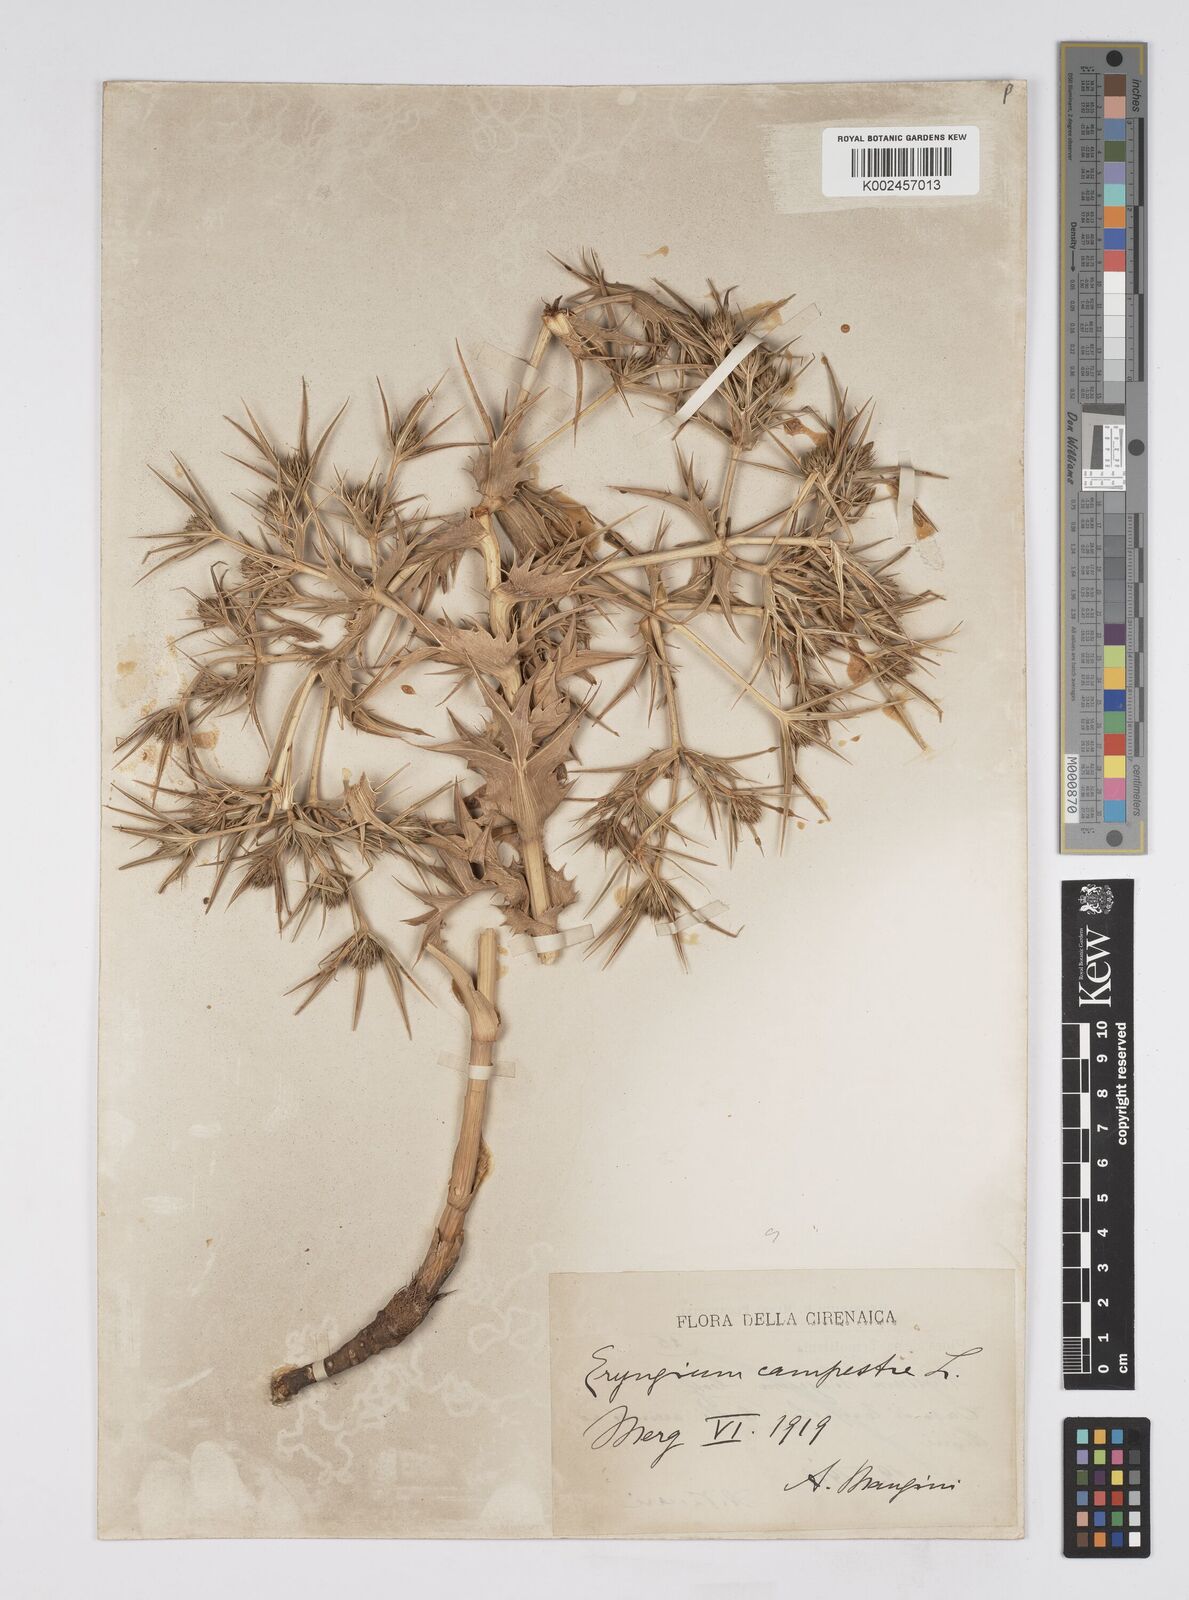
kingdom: Plantae
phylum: Tracheophyta
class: Magnoliopsida
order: Apiales
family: Apiaceae
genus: Eryngium
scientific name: Eryngium campestre
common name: Field eryngo
